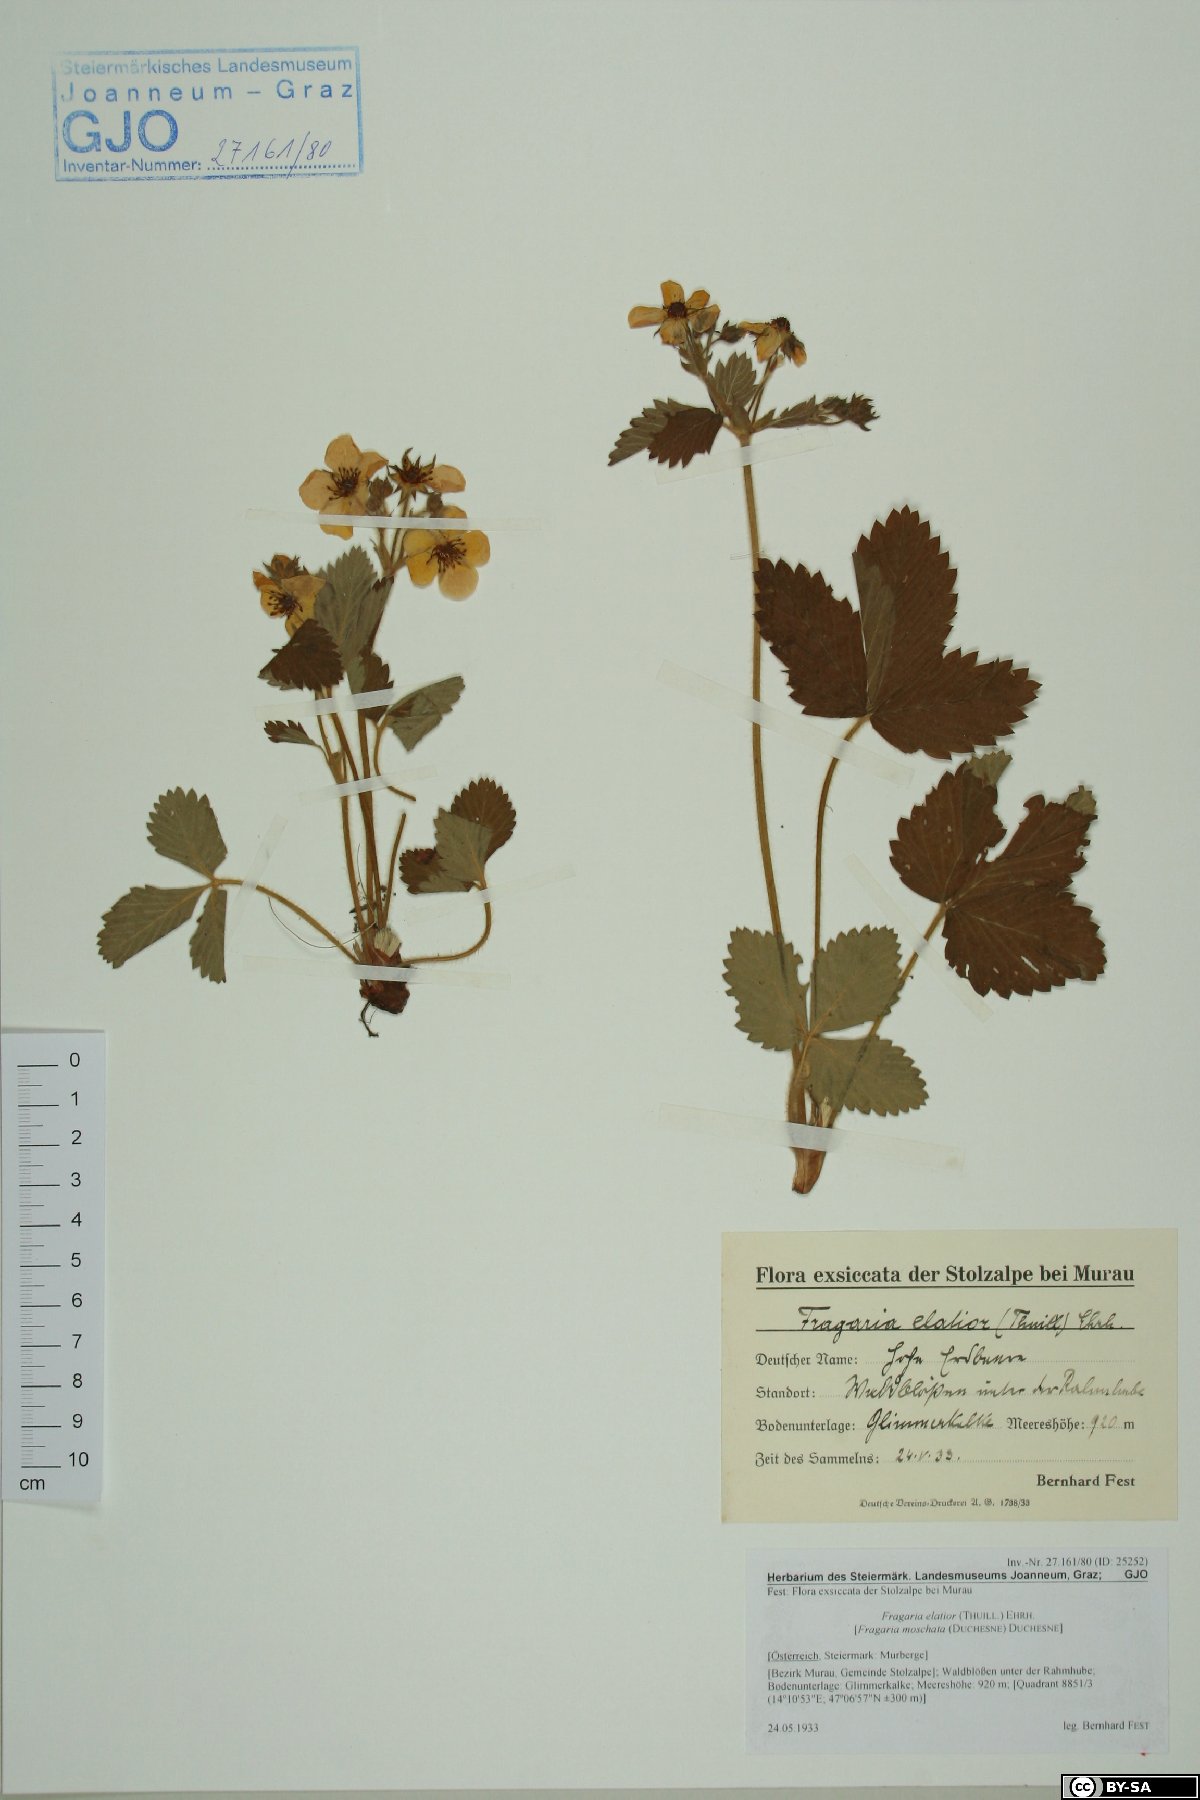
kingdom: Plantae
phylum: Tracheophyta
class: Magnoliopsida
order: Rosales
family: Rosaceae
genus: Fragaria
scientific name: Fragaria
